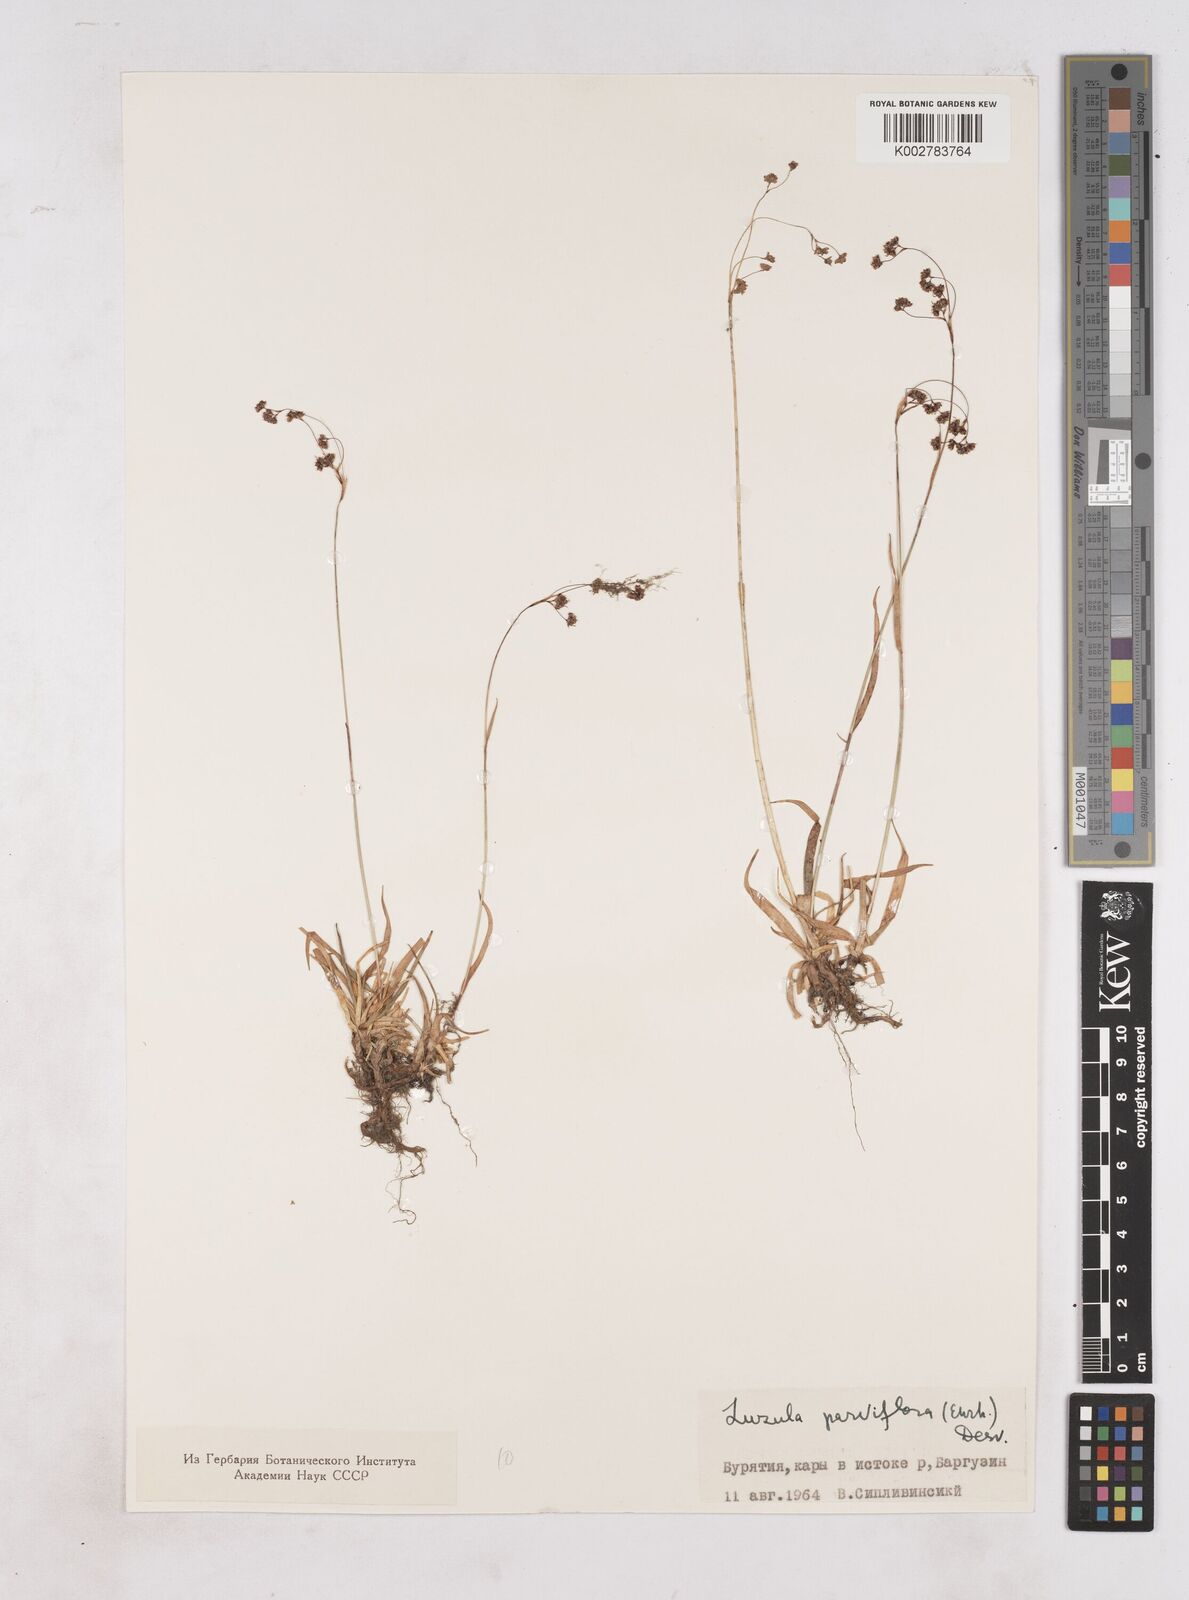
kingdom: Plantae
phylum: Tracheophyta
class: Liliopsida
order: Poales
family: Juncaceae
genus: Luzula
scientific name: Luzula parviflora
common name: Millet woodrush
